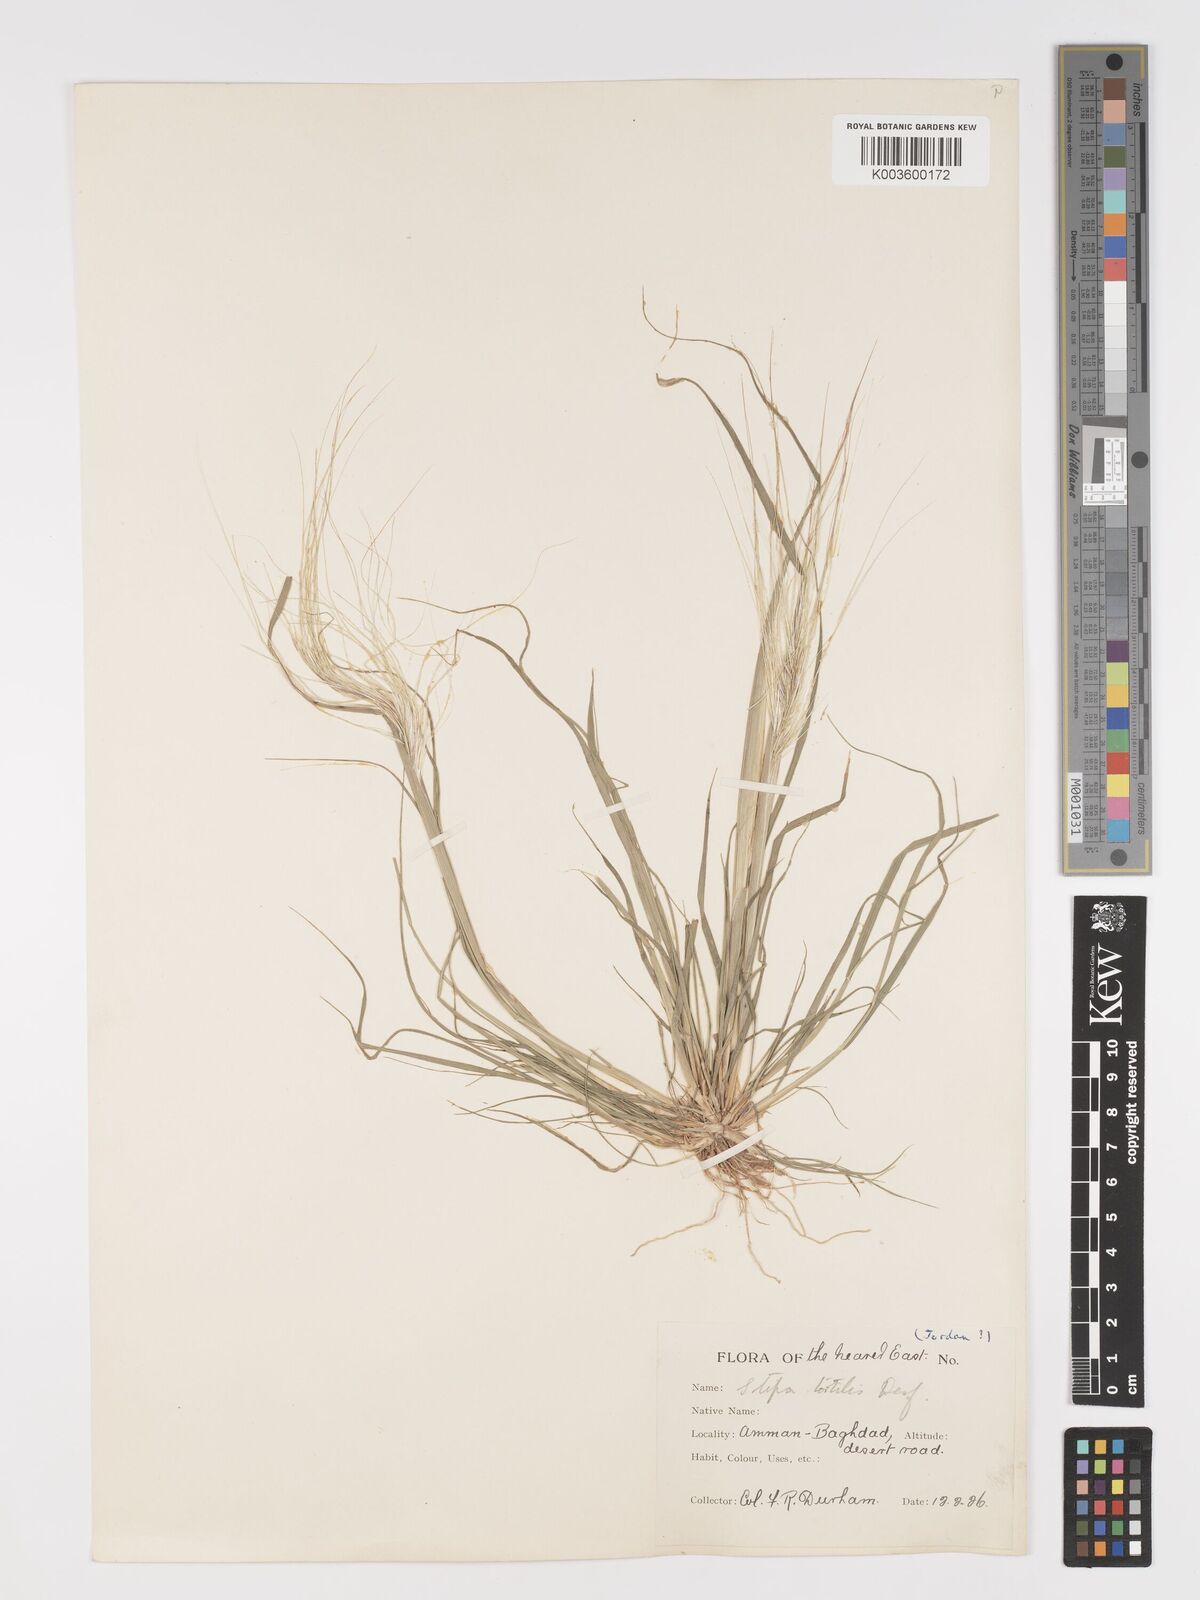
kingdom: Plantae
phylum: Tracheophyta
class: Liliopsida
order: Poales
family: Poaceae
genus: Stipellula
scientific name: Stipellula capensis
